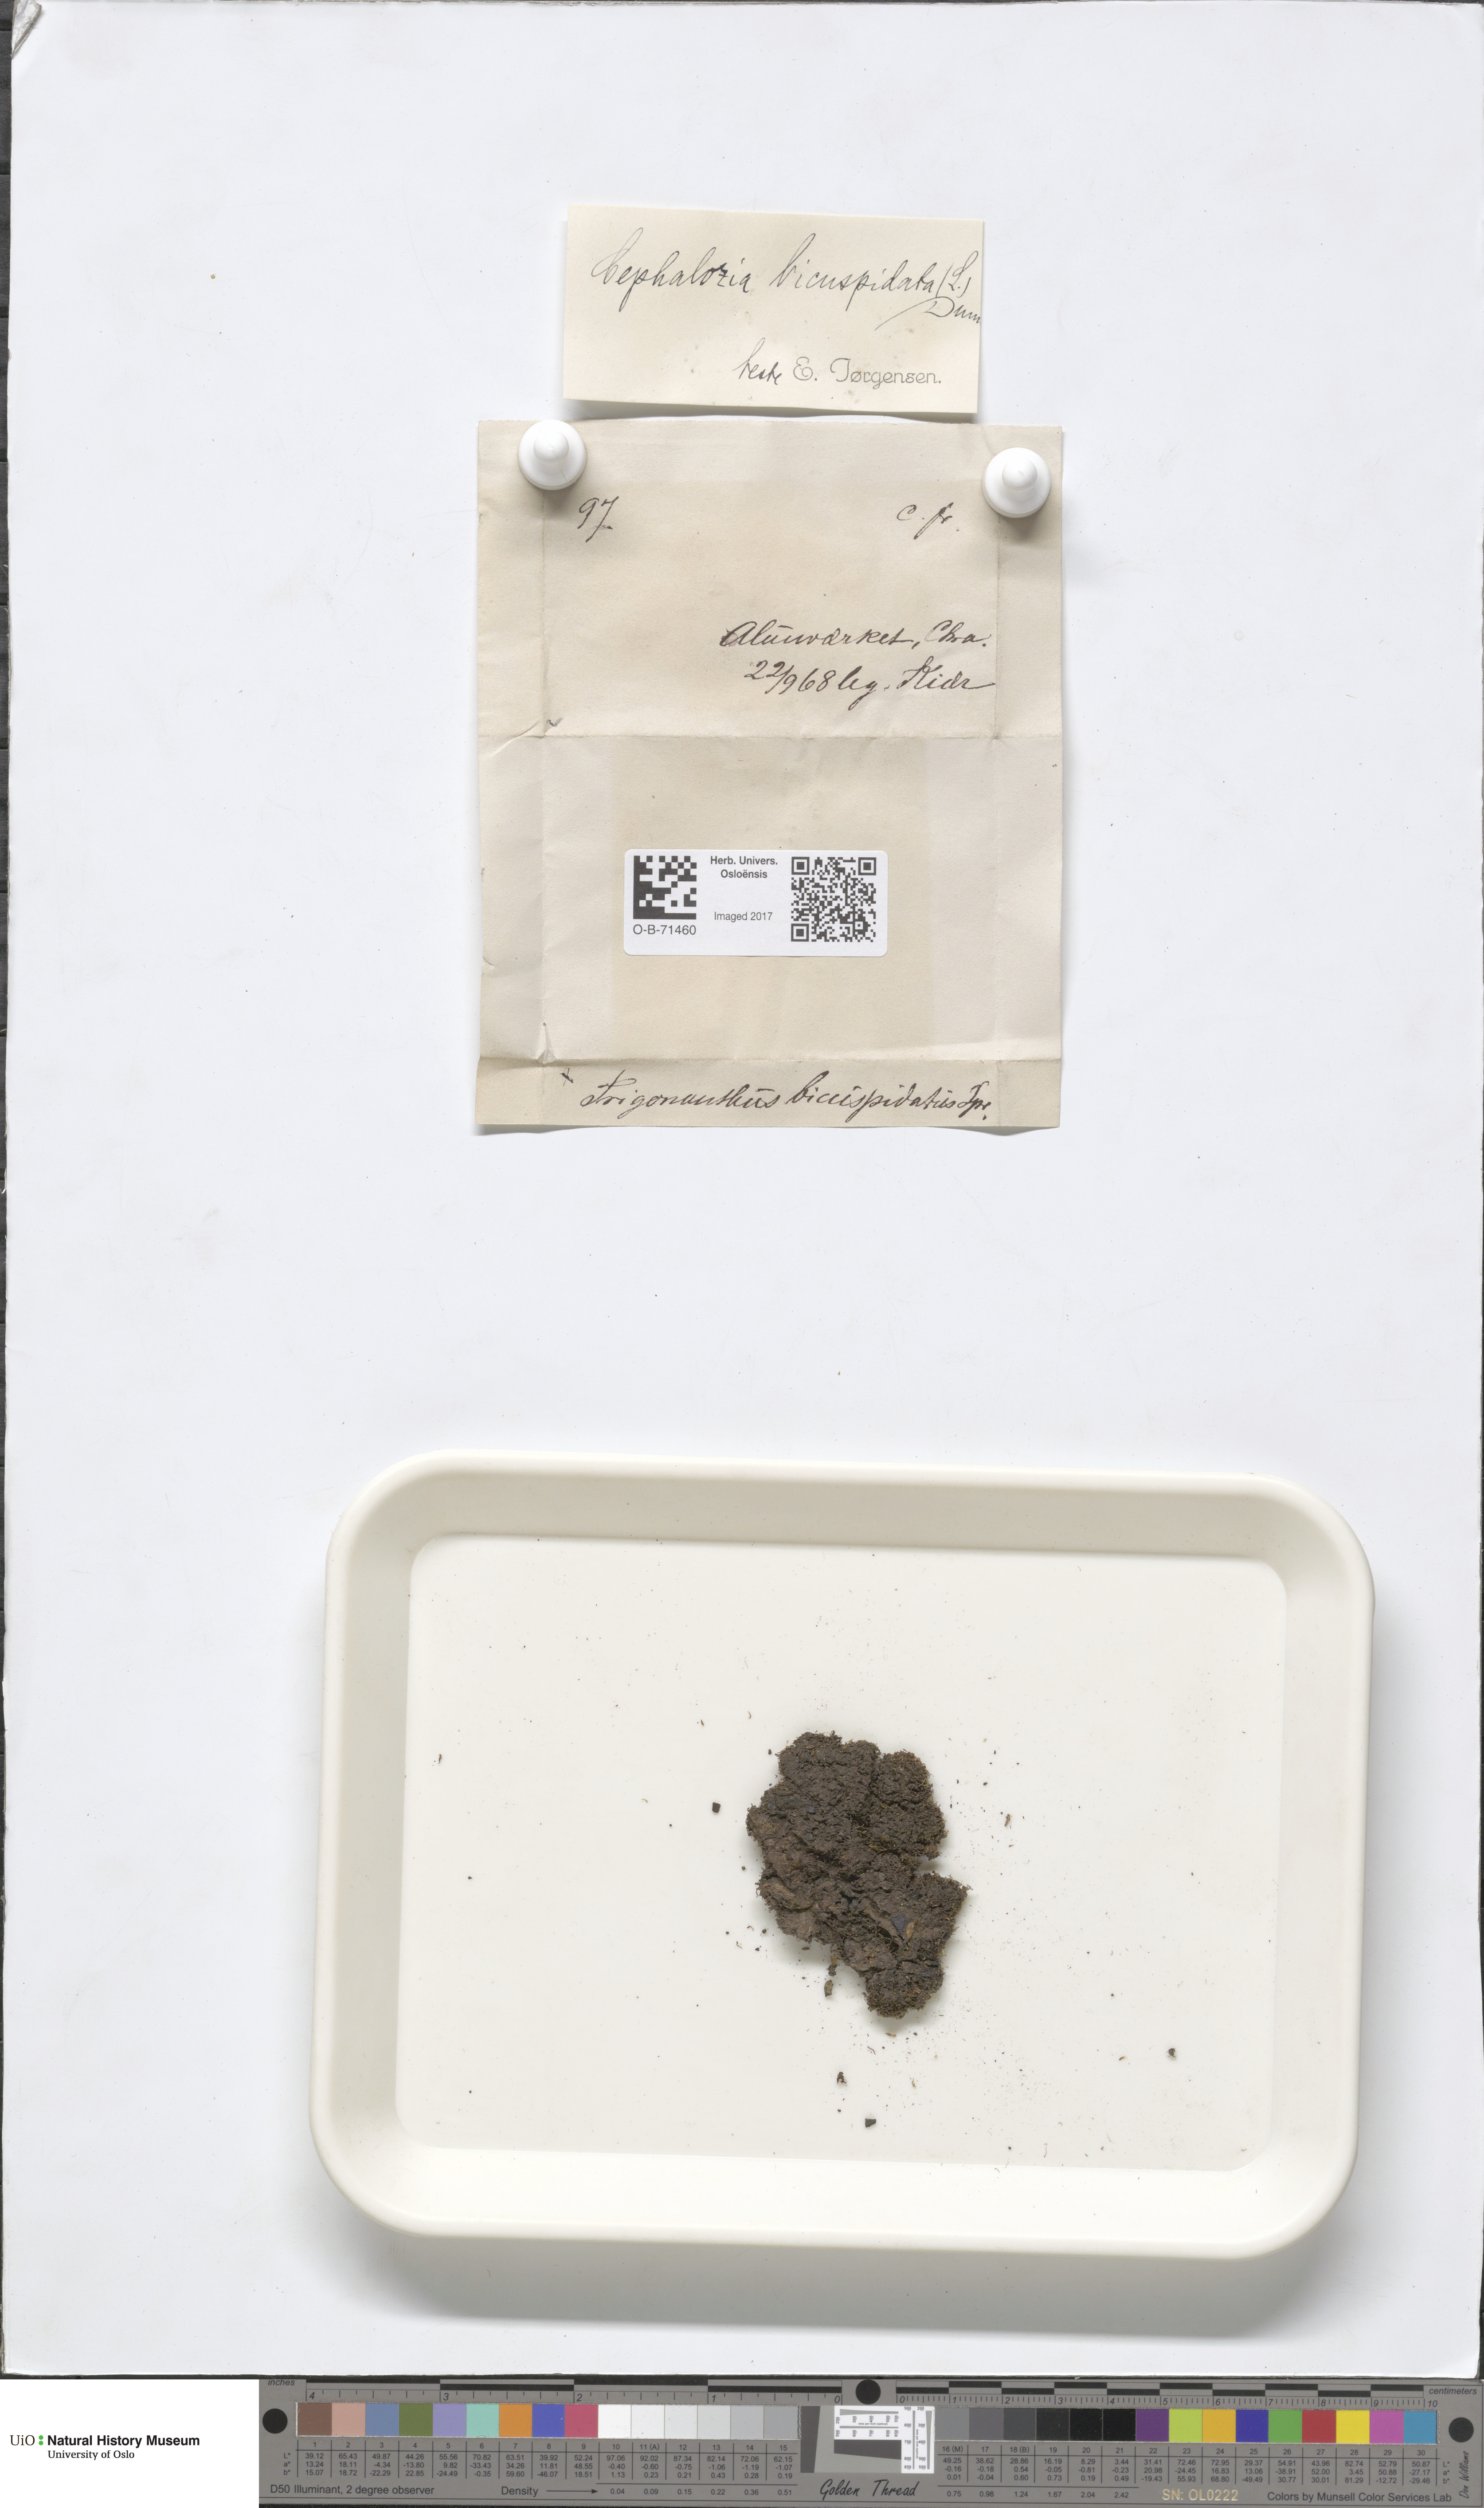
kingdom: Plantae
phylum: Marchantiophyta
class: Jungermanniopsida
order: Jungermanniales
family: Cephaloziaceae
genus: Cephalozia
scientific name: Cephalozia bicuspidata
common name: Two-horned pincerwort
